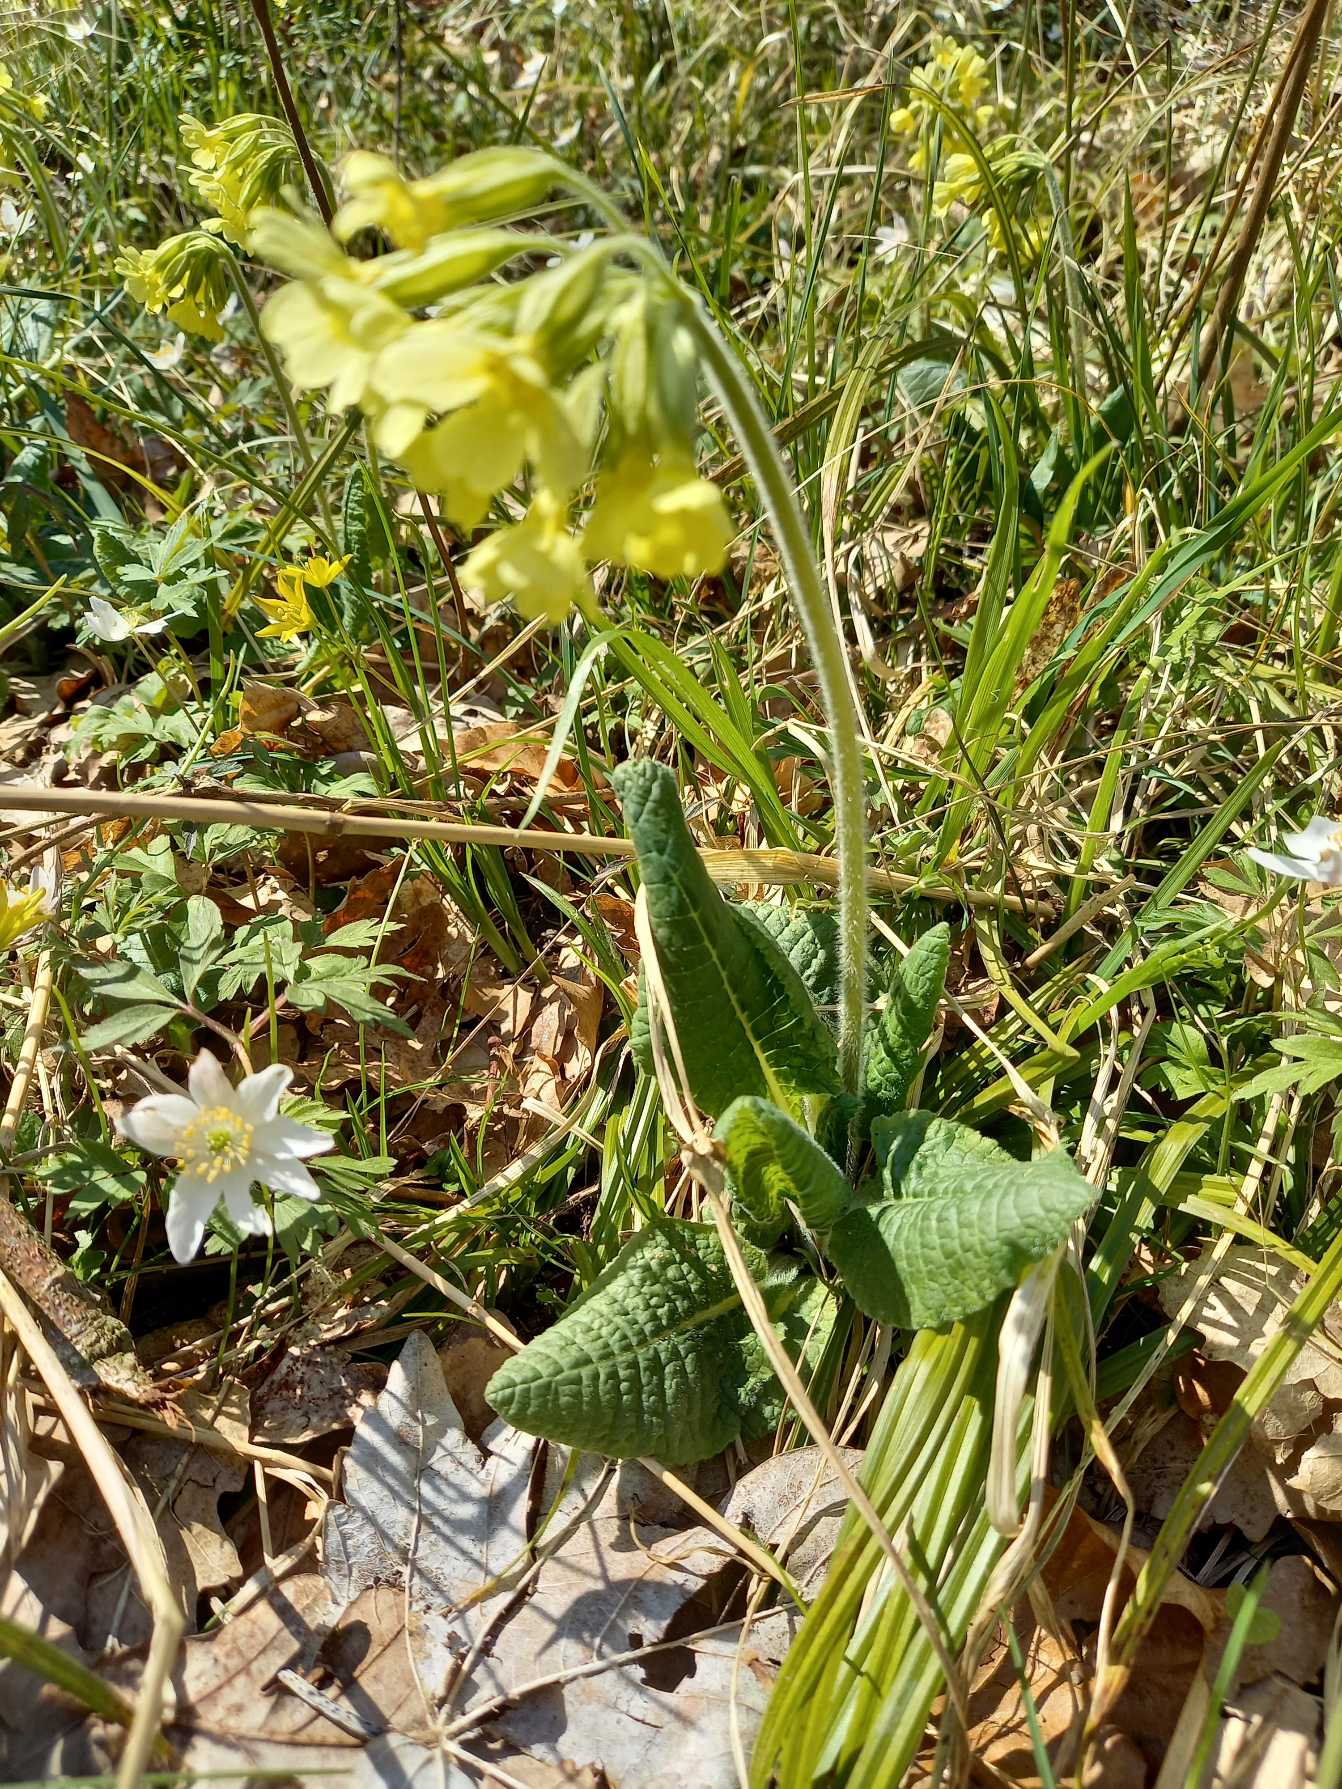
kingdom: Plantae
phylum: Tracheophyta
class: Magnoliopsida
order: Ericales
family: Primulaceae
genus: Primula
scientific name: Primula elatior
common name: Fladkravet kodriver
